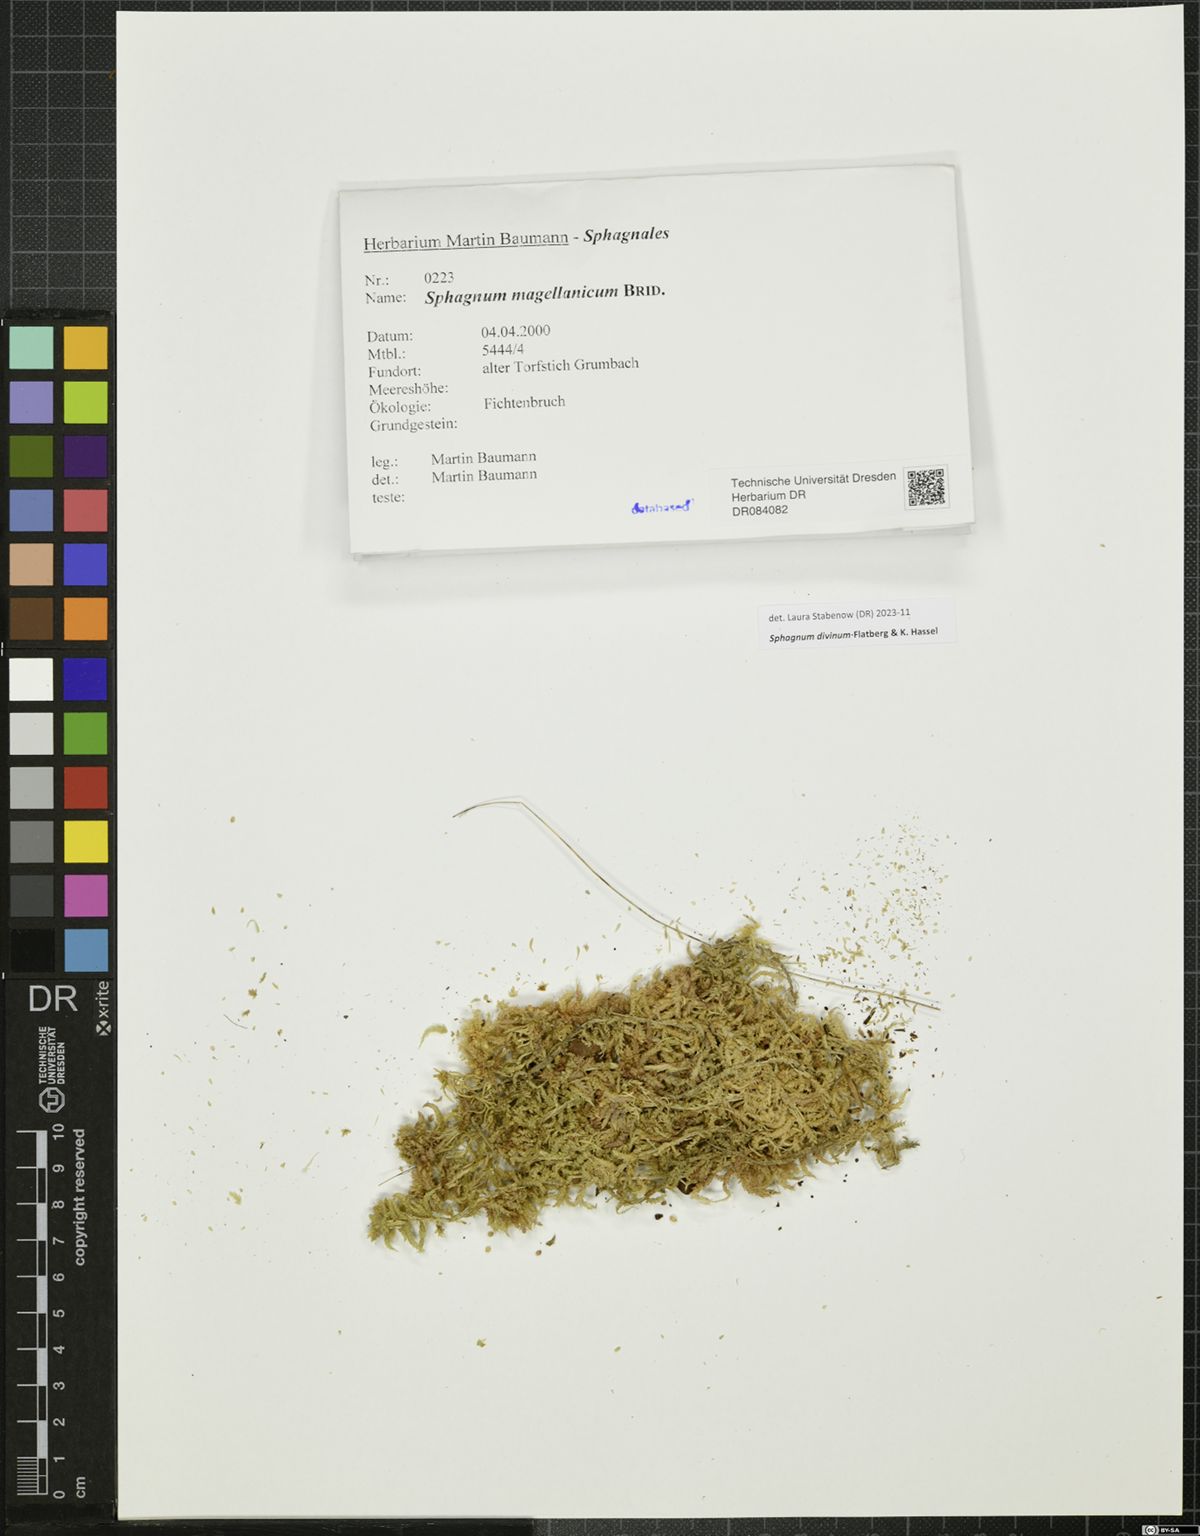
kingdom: Plantae
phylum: Bryophyta
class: Sphagnopsida
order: Sphagnales
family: Sphagnaceae
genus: Sphagnum
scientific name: Sphagnum divinum
